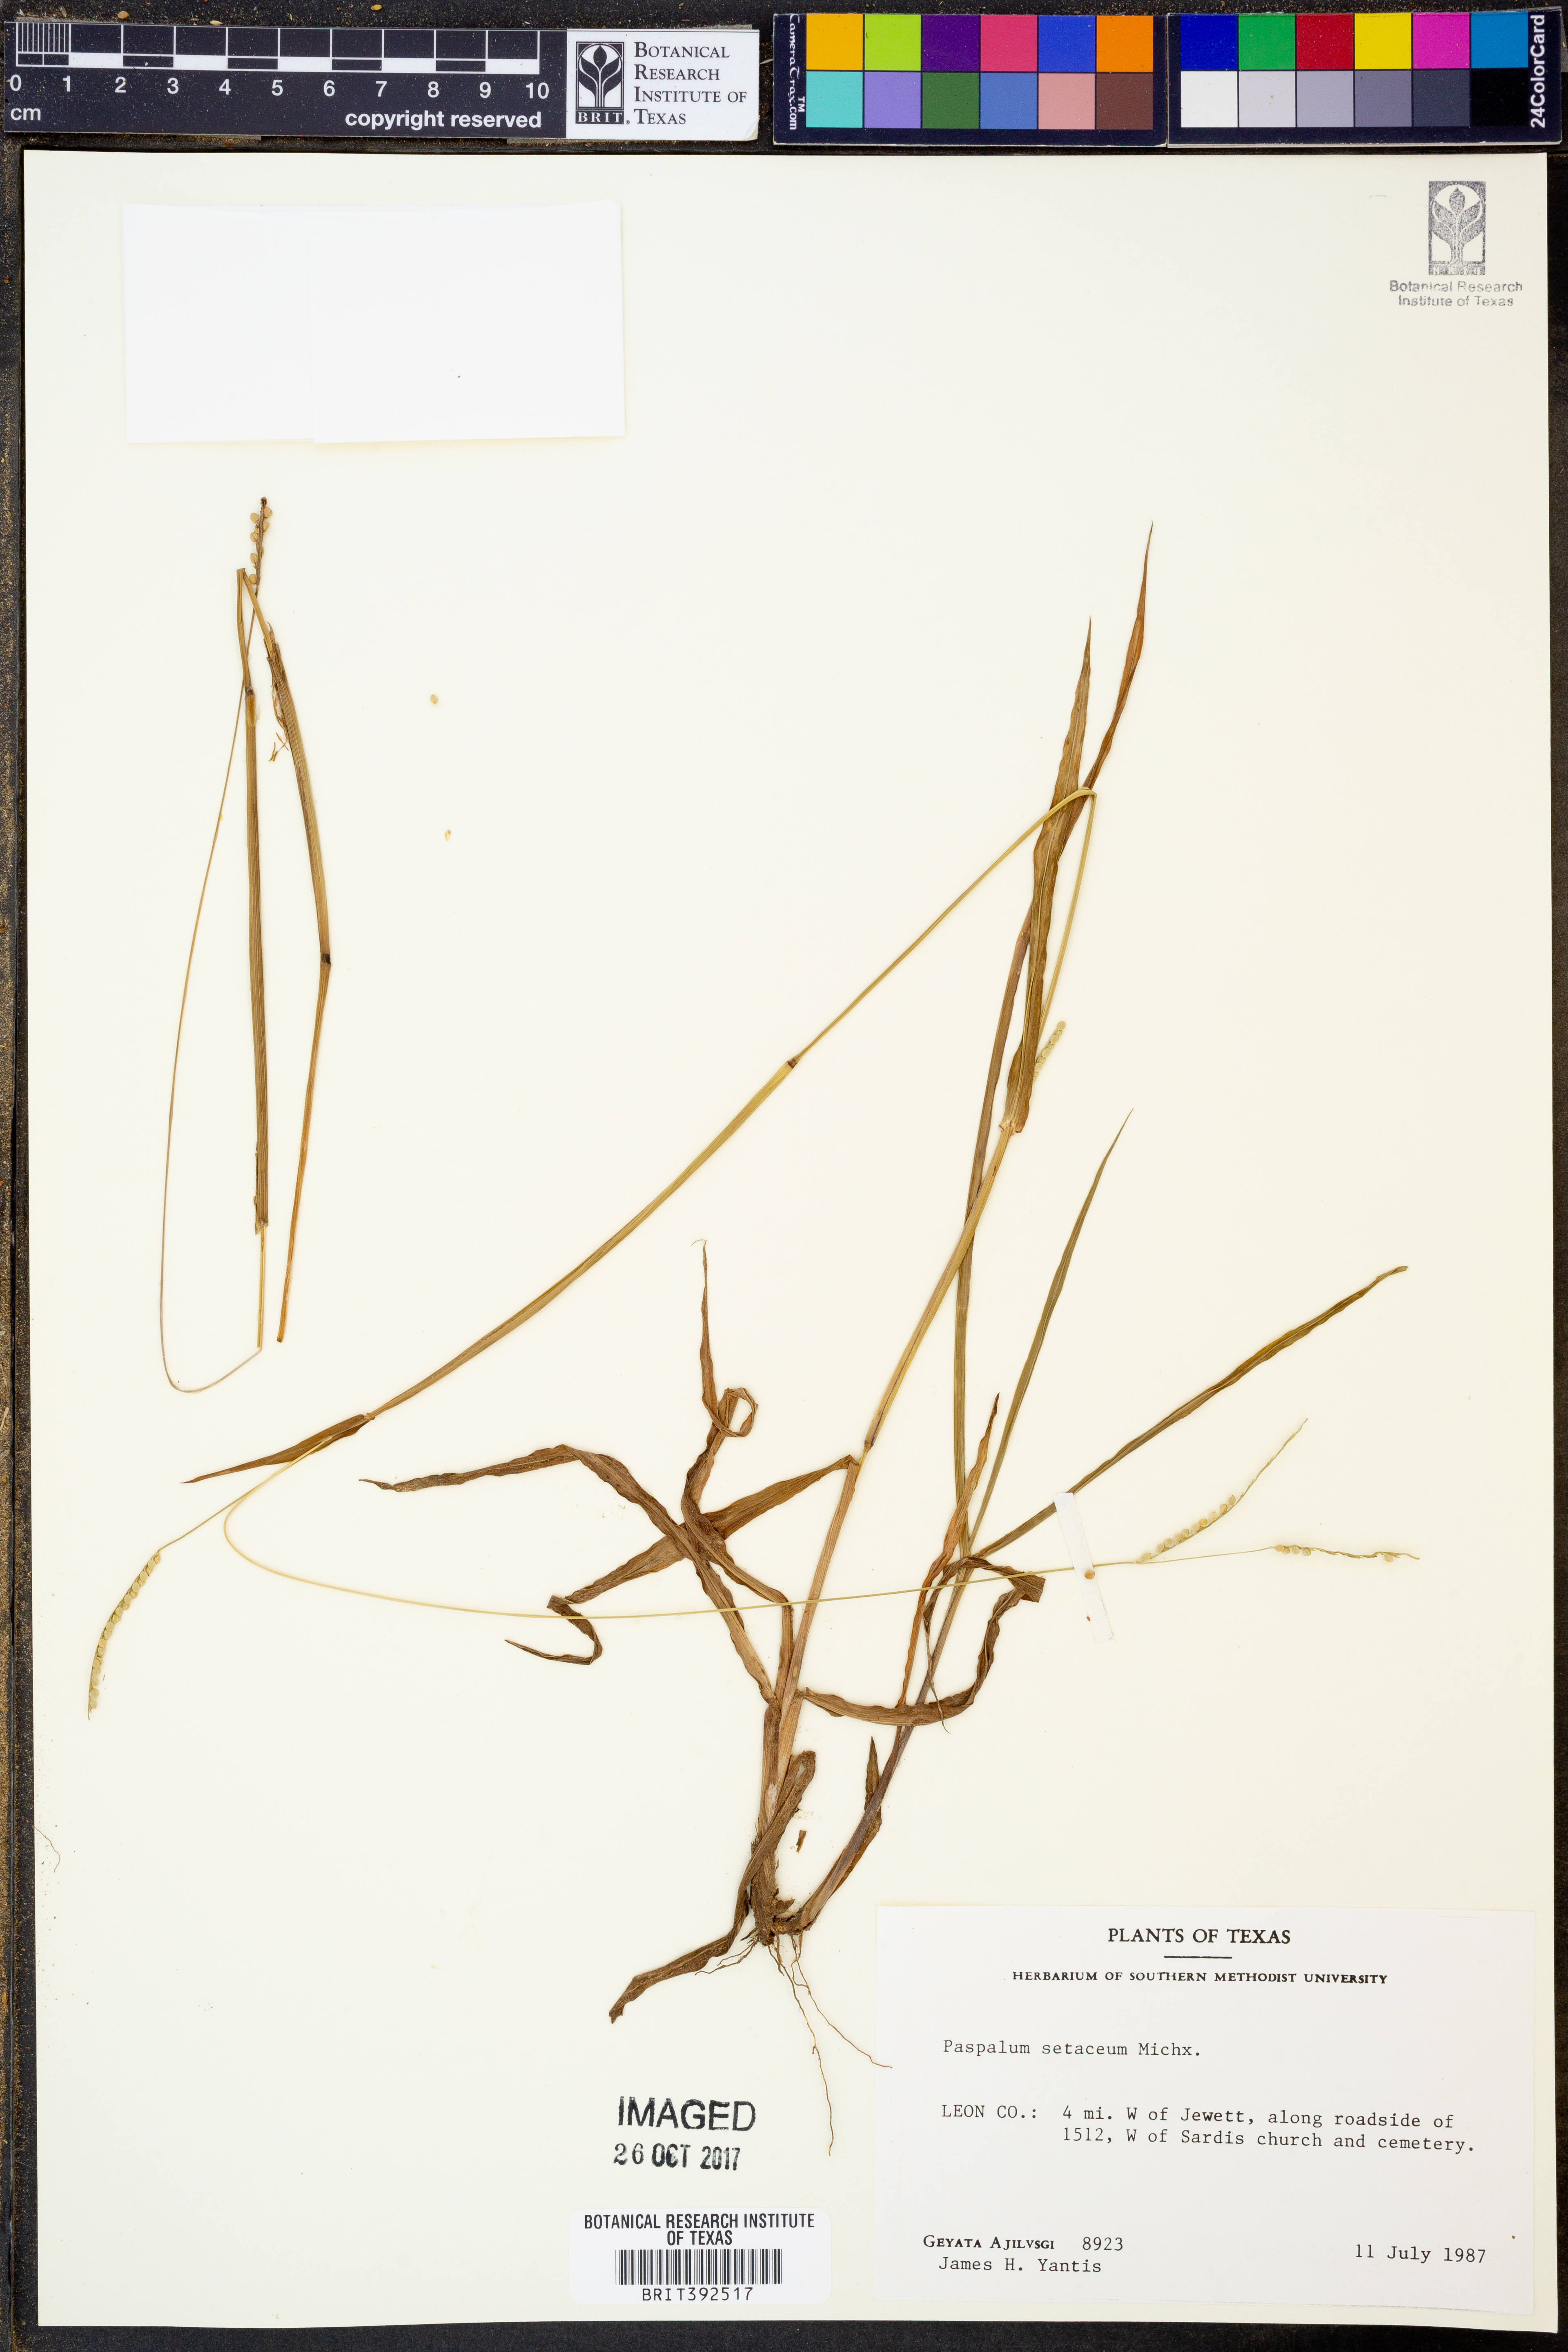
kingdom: Plantae
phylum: Tracheophyta
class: Liliopsida
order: Poales
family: Poaceae
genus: Paspalum
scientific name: Paspalum setaceum
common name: Slender paspalum
